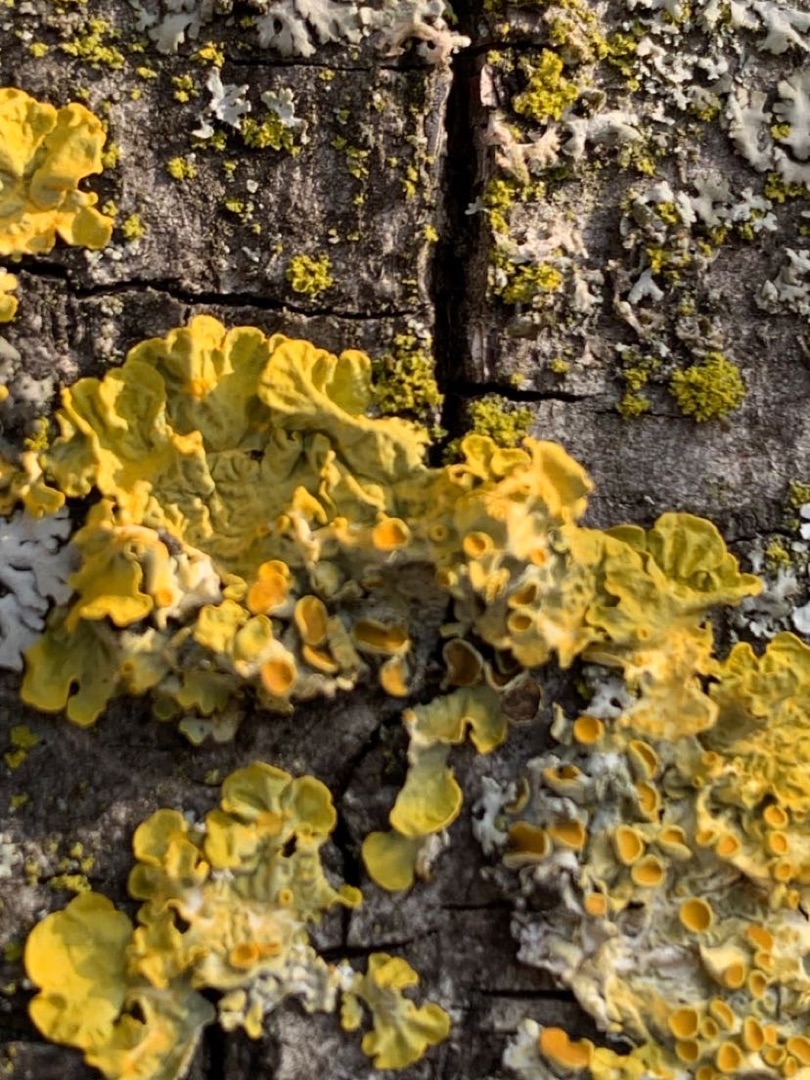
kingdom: Fungi
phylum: Ascomycota
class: Lecanoromycetes
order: Teloschistales
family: Teloschistaceae
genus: Xanthoria
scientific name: Xanthoria parietina
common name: Almindelig væggelav
